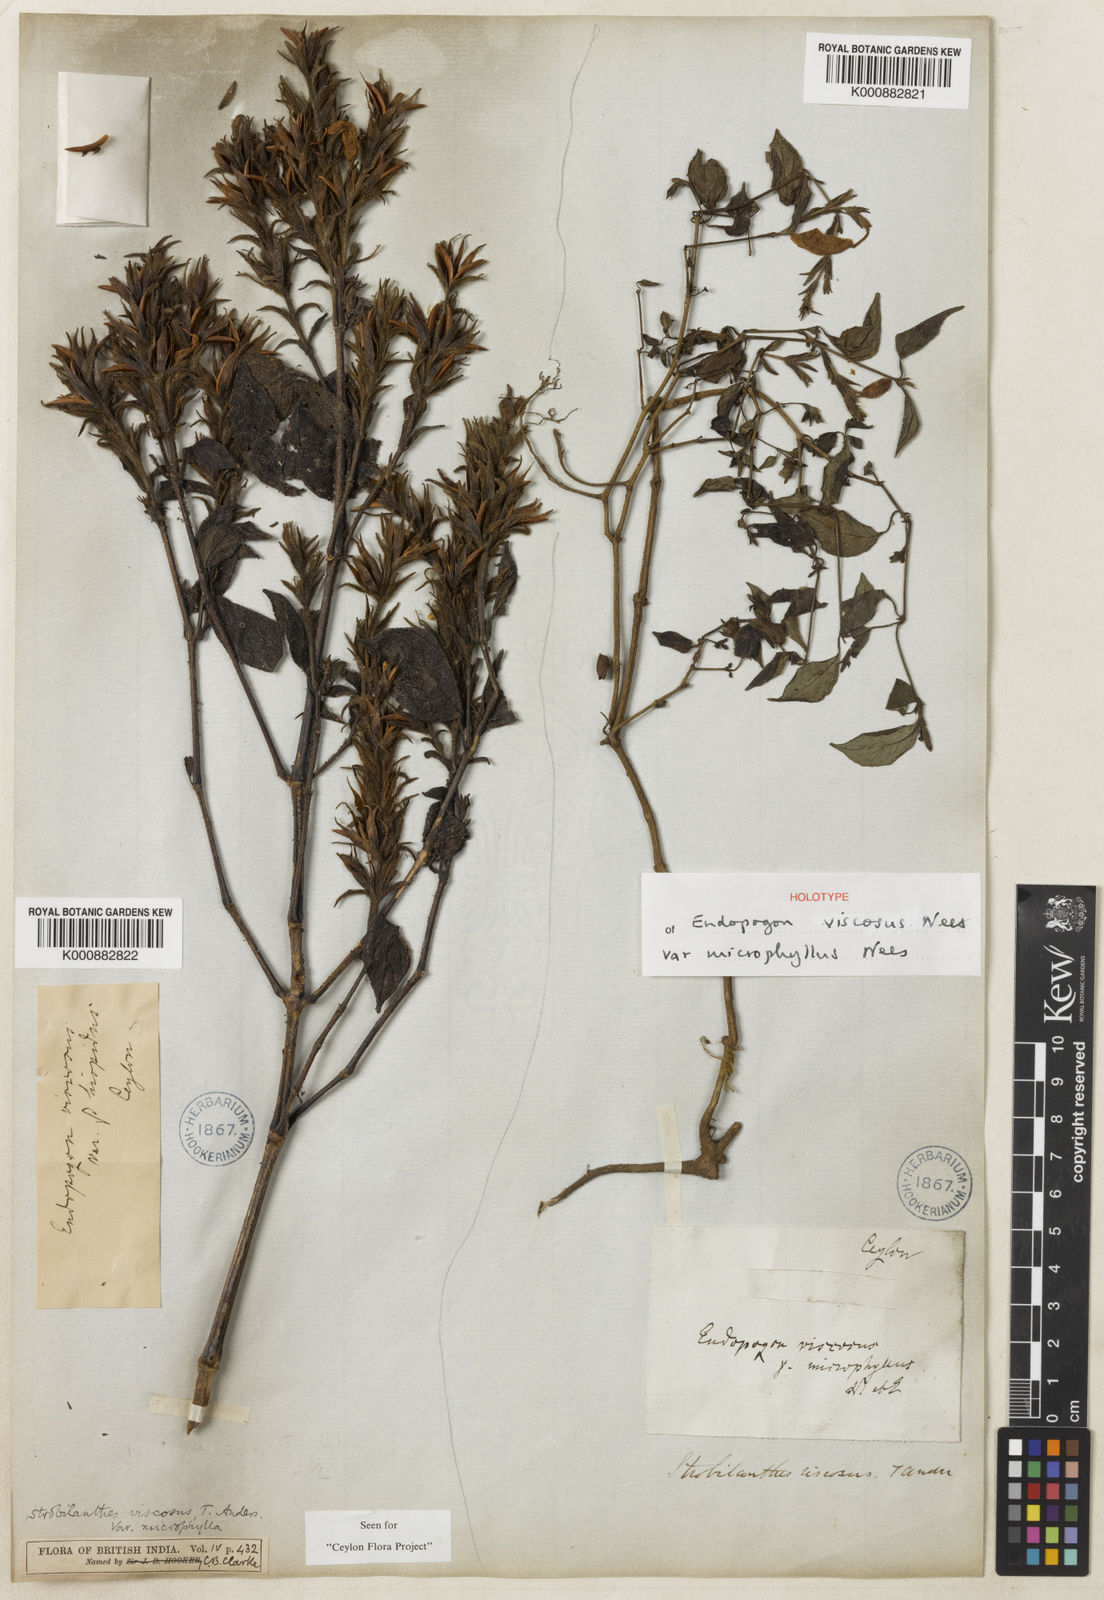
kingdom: Plantae
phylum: Tracheophyta
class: Magnoliopsida
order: Lamiales
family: Acanthaceae
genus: Strobilanthes
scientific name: Strobilanthes viscosa
